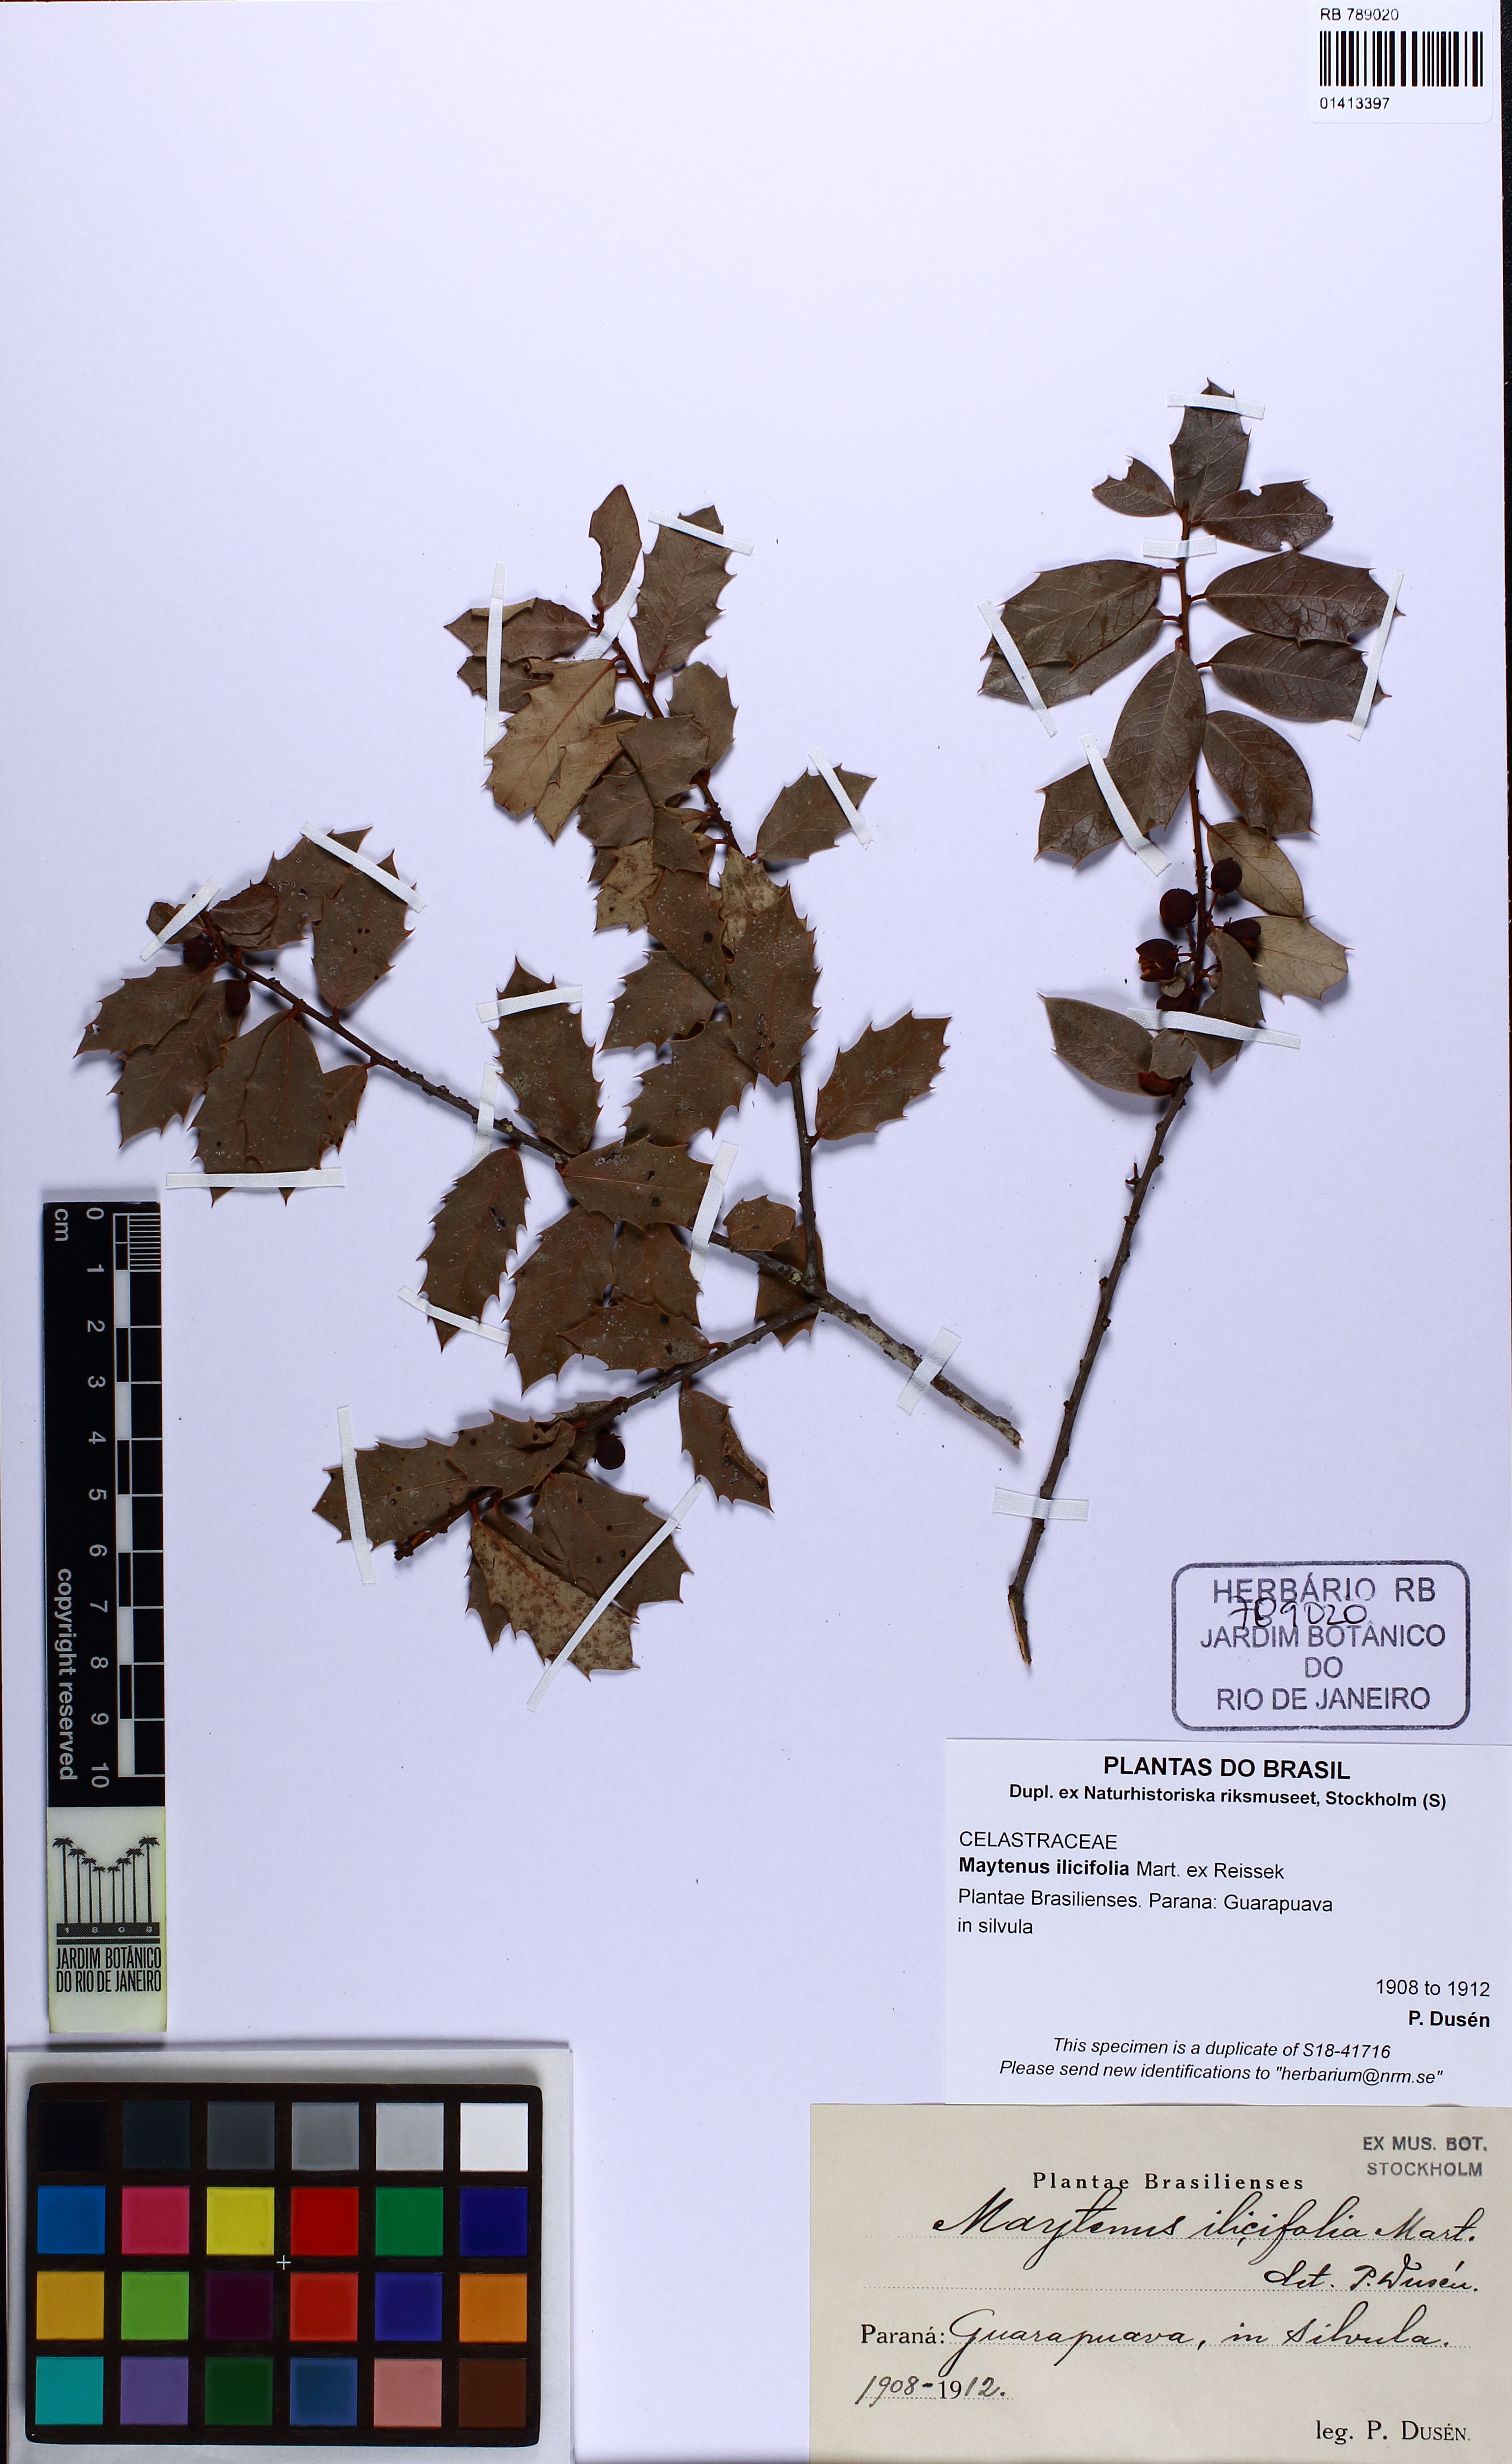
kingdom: Plantae
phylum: Tracheophyta
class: Magnoliopsida
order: Celastrales
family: Celastraceae
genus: Monteverdia
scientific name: Monteverdia ilicifolia
